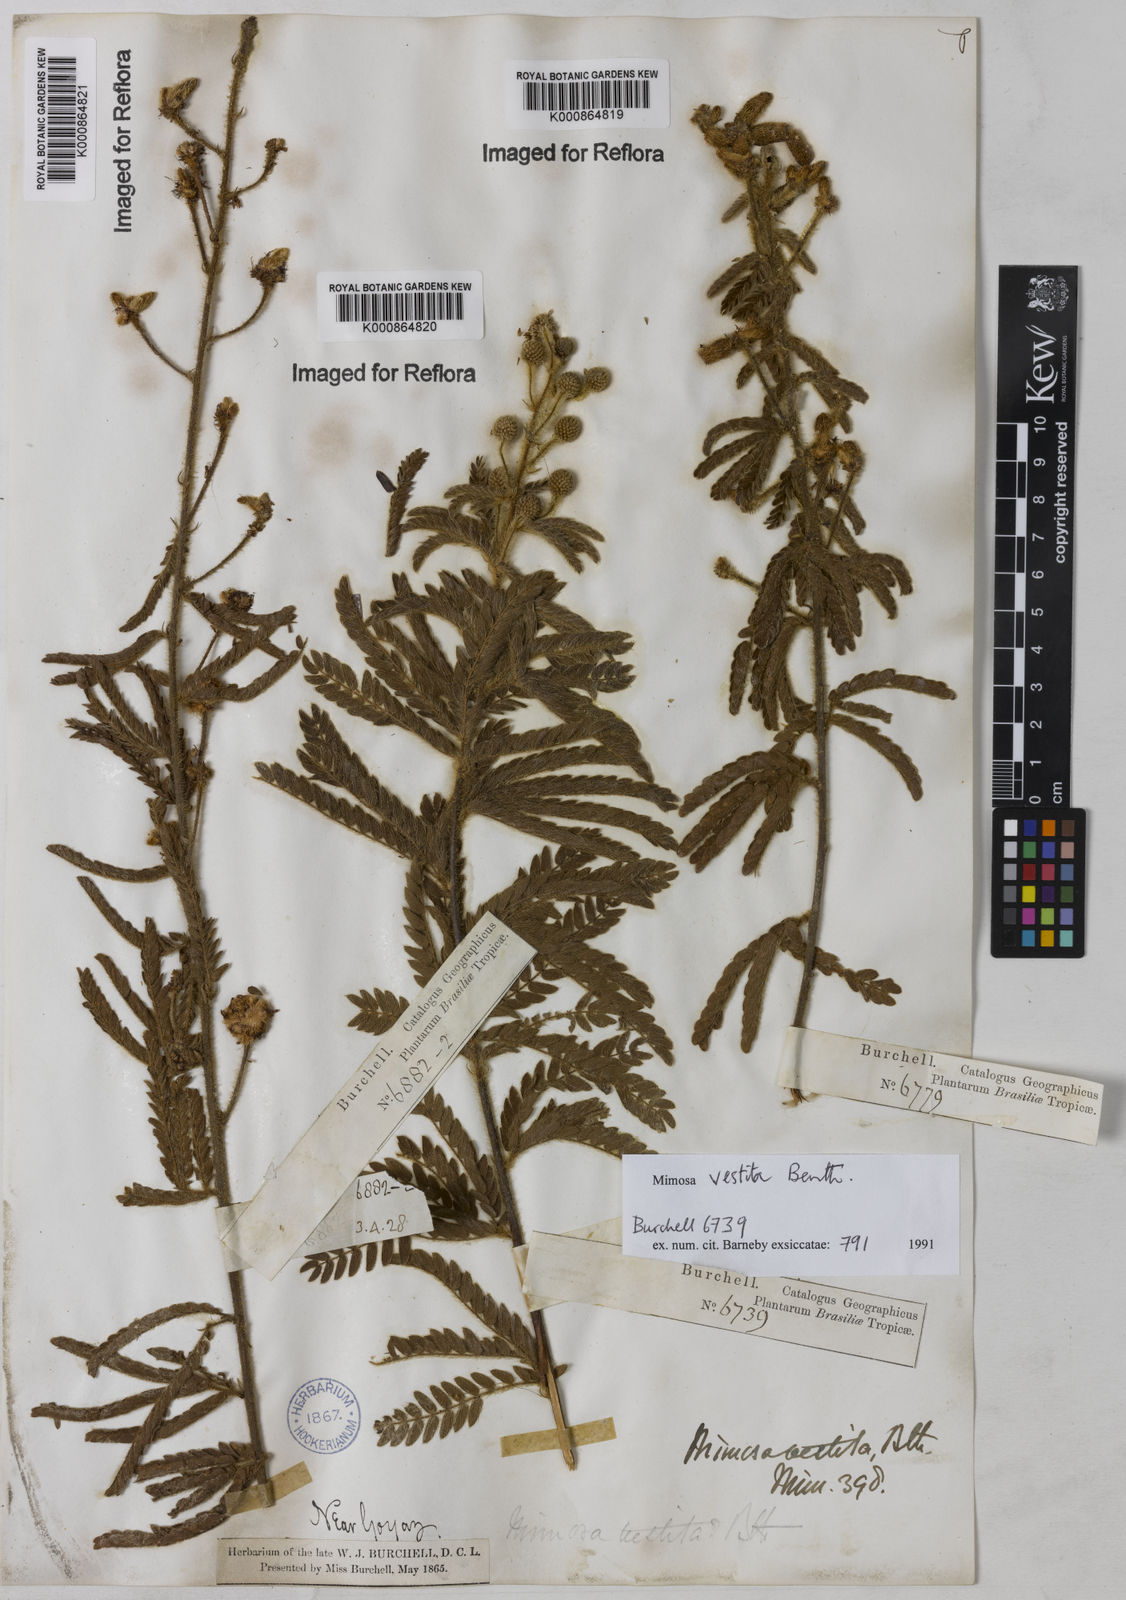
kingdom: Plantae
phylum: Tracheophyta
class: Magnoliopsida
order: Fabales
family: Fabaceae
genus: Mimosa
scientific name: Mimosa vestita
